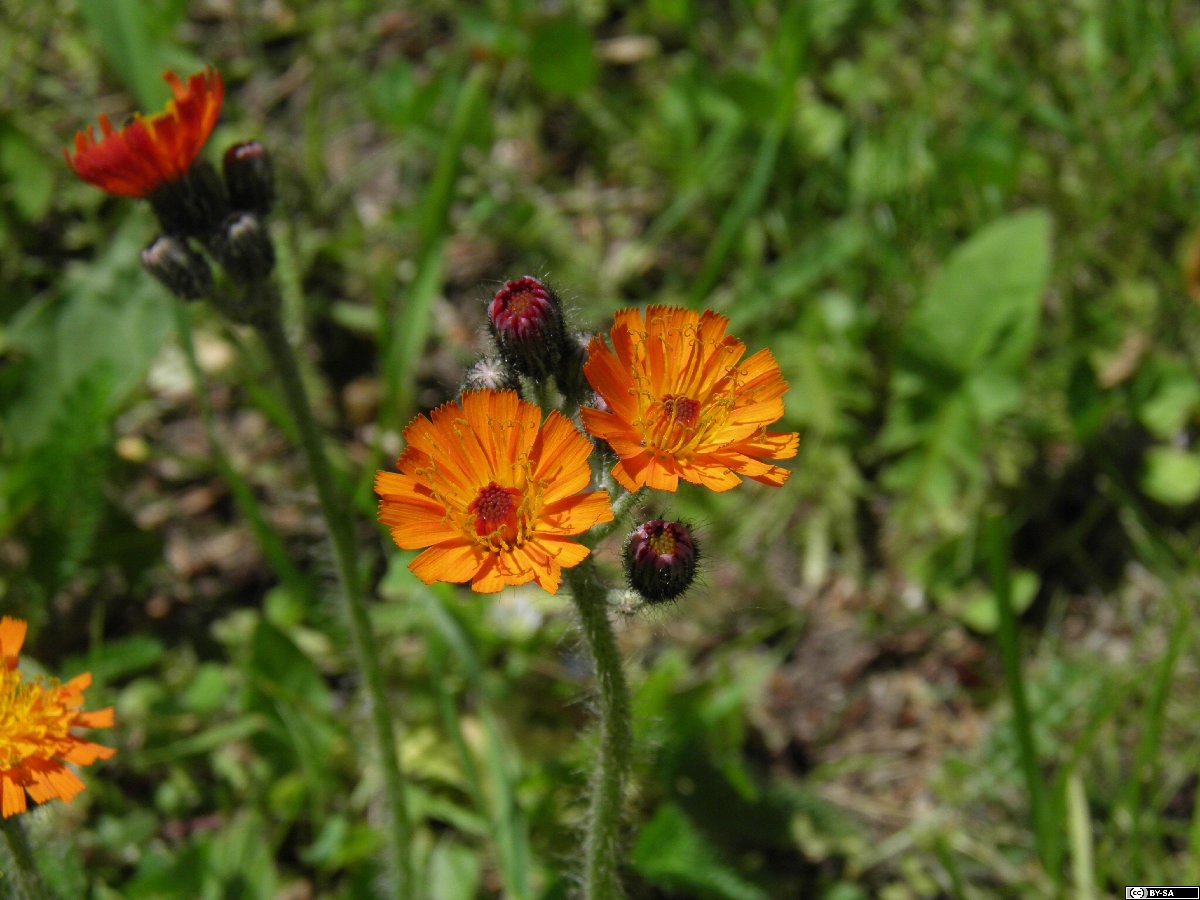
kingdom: Plantae
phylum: Tracheophyta
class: Magnoliopsida
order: Asterales
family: Asteraceae
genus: Pilosella
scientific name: Pilosella aurantiaca
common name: Fox-and-cubs
